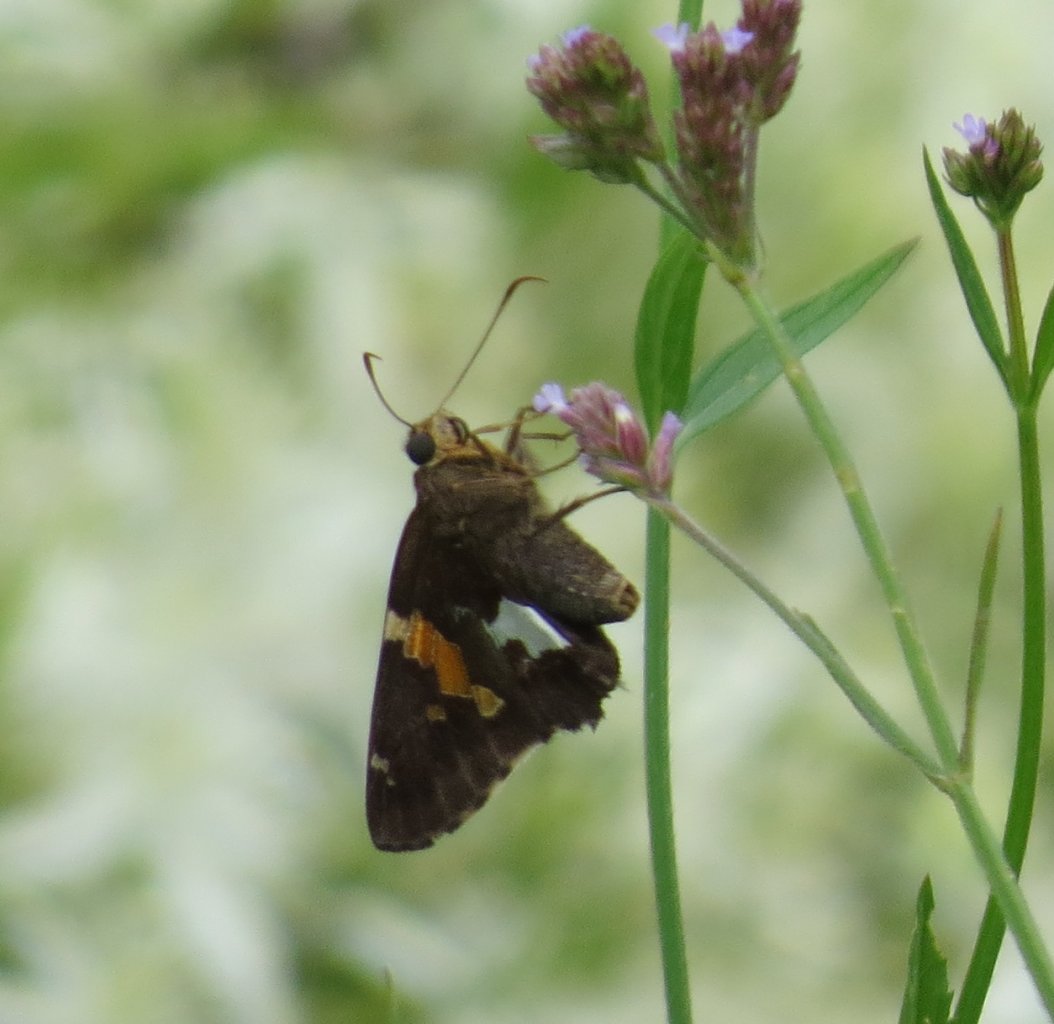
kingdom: Animalia
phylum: Arthropoda
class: Insecta
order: Lepidoptera
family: Hesperiidae
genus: Epargyreus
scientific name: Epargyreus clarus
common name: Silver-spotted Skipper
